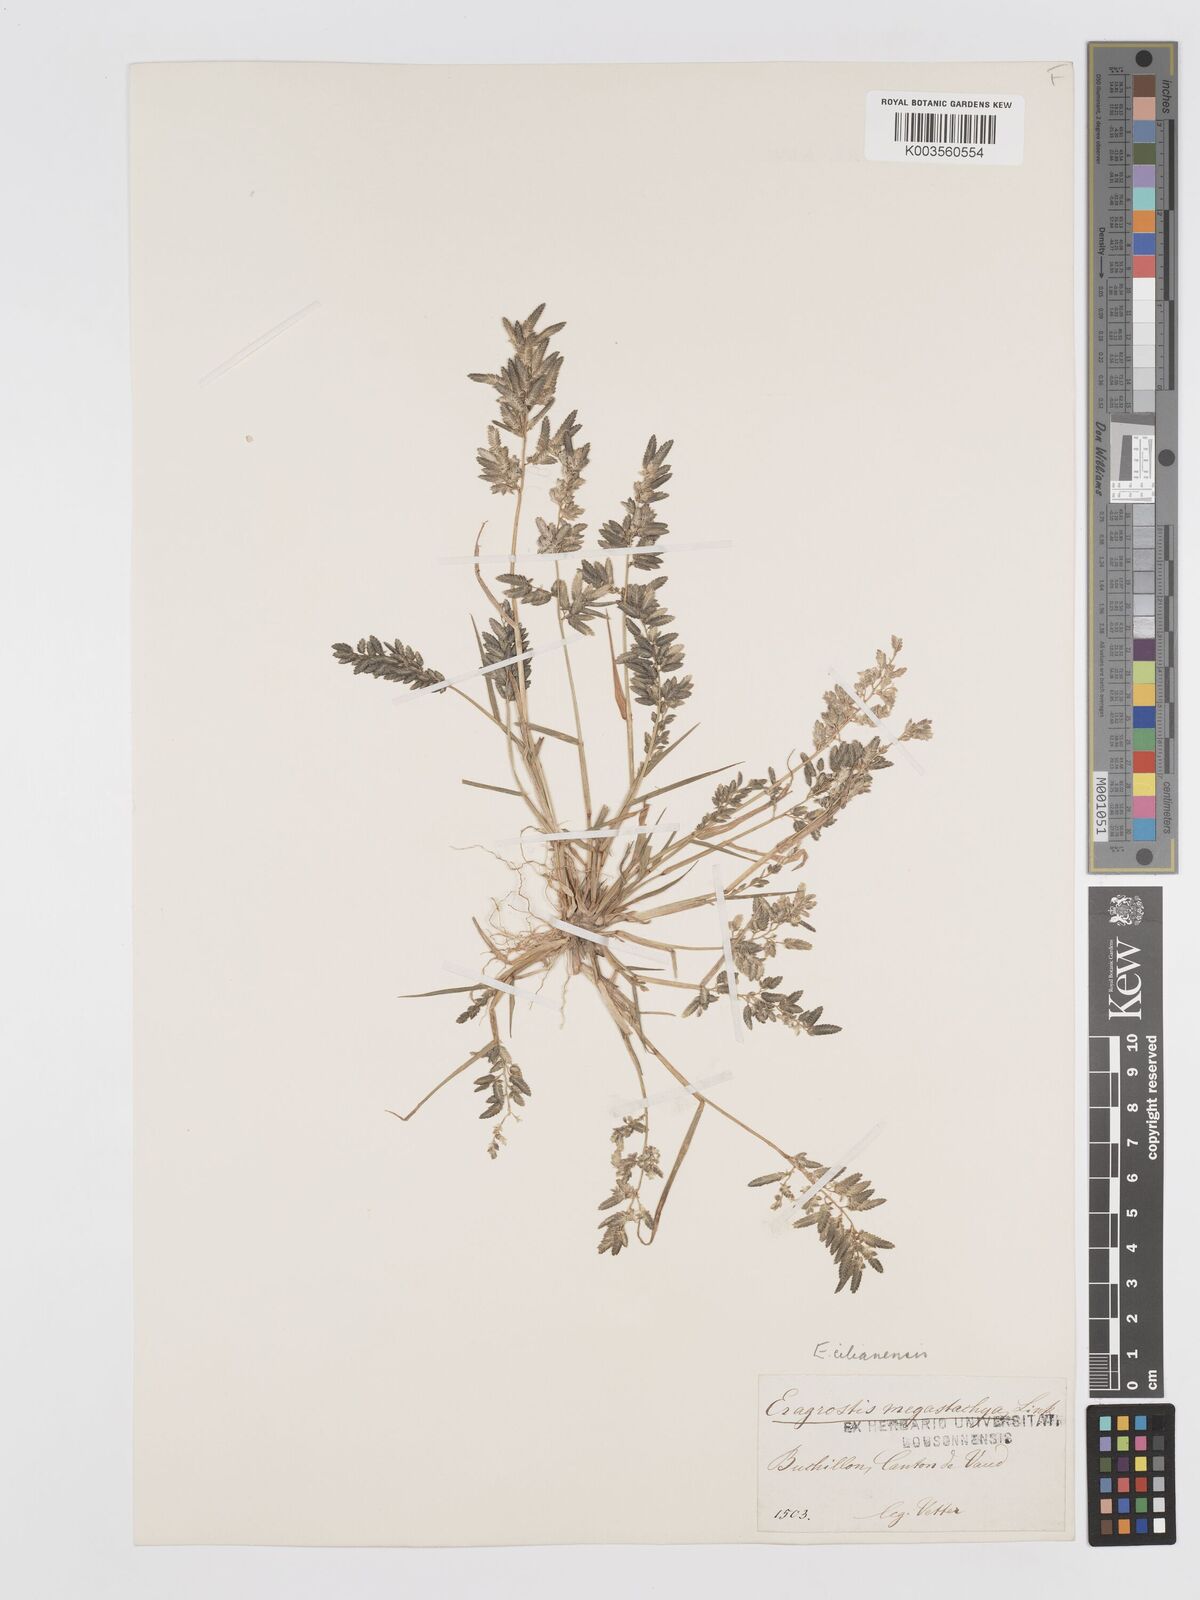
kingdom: Plantae
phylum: Tracheophyta
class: Liliopsida
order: Poales
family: Poaceae
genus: Eragrostis
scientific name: Eragrostis cilianensis
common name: Stinkgrass
